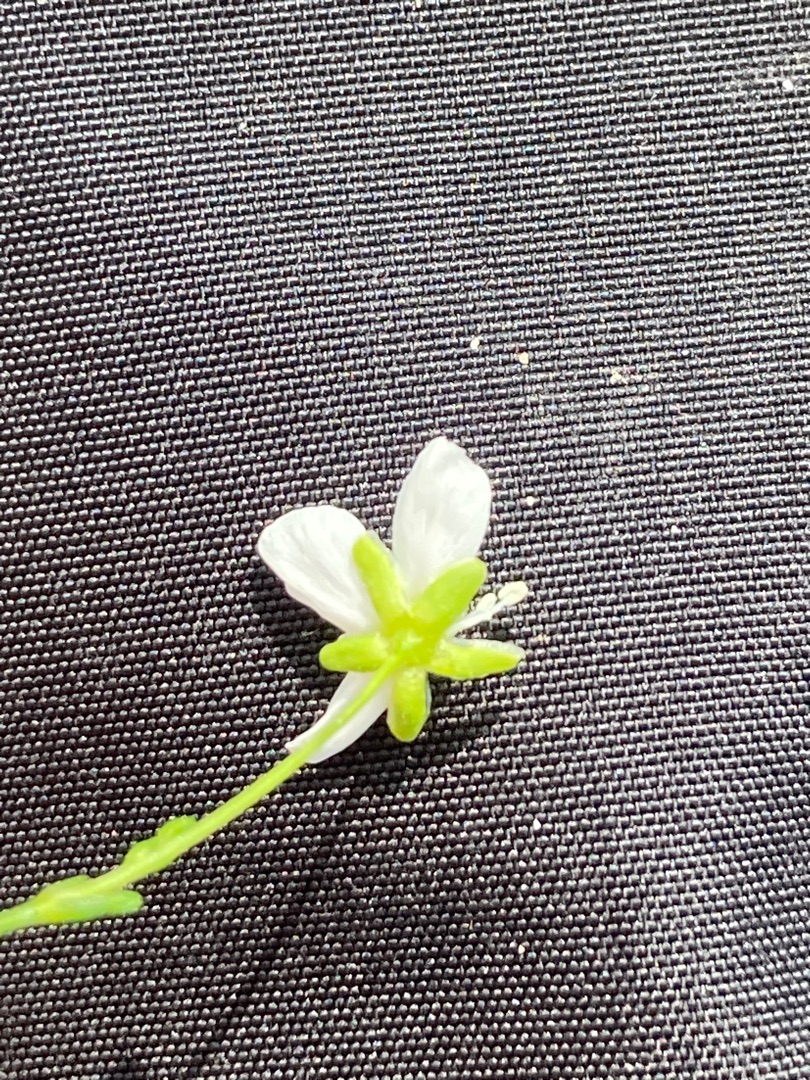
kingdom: Plantae
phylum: Tracheophyta
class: Magnoliopsida
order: Caryophyllales
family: Caryophyllaceae
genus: Sagina
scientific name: Sagina nodosa
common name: Knude-firling
